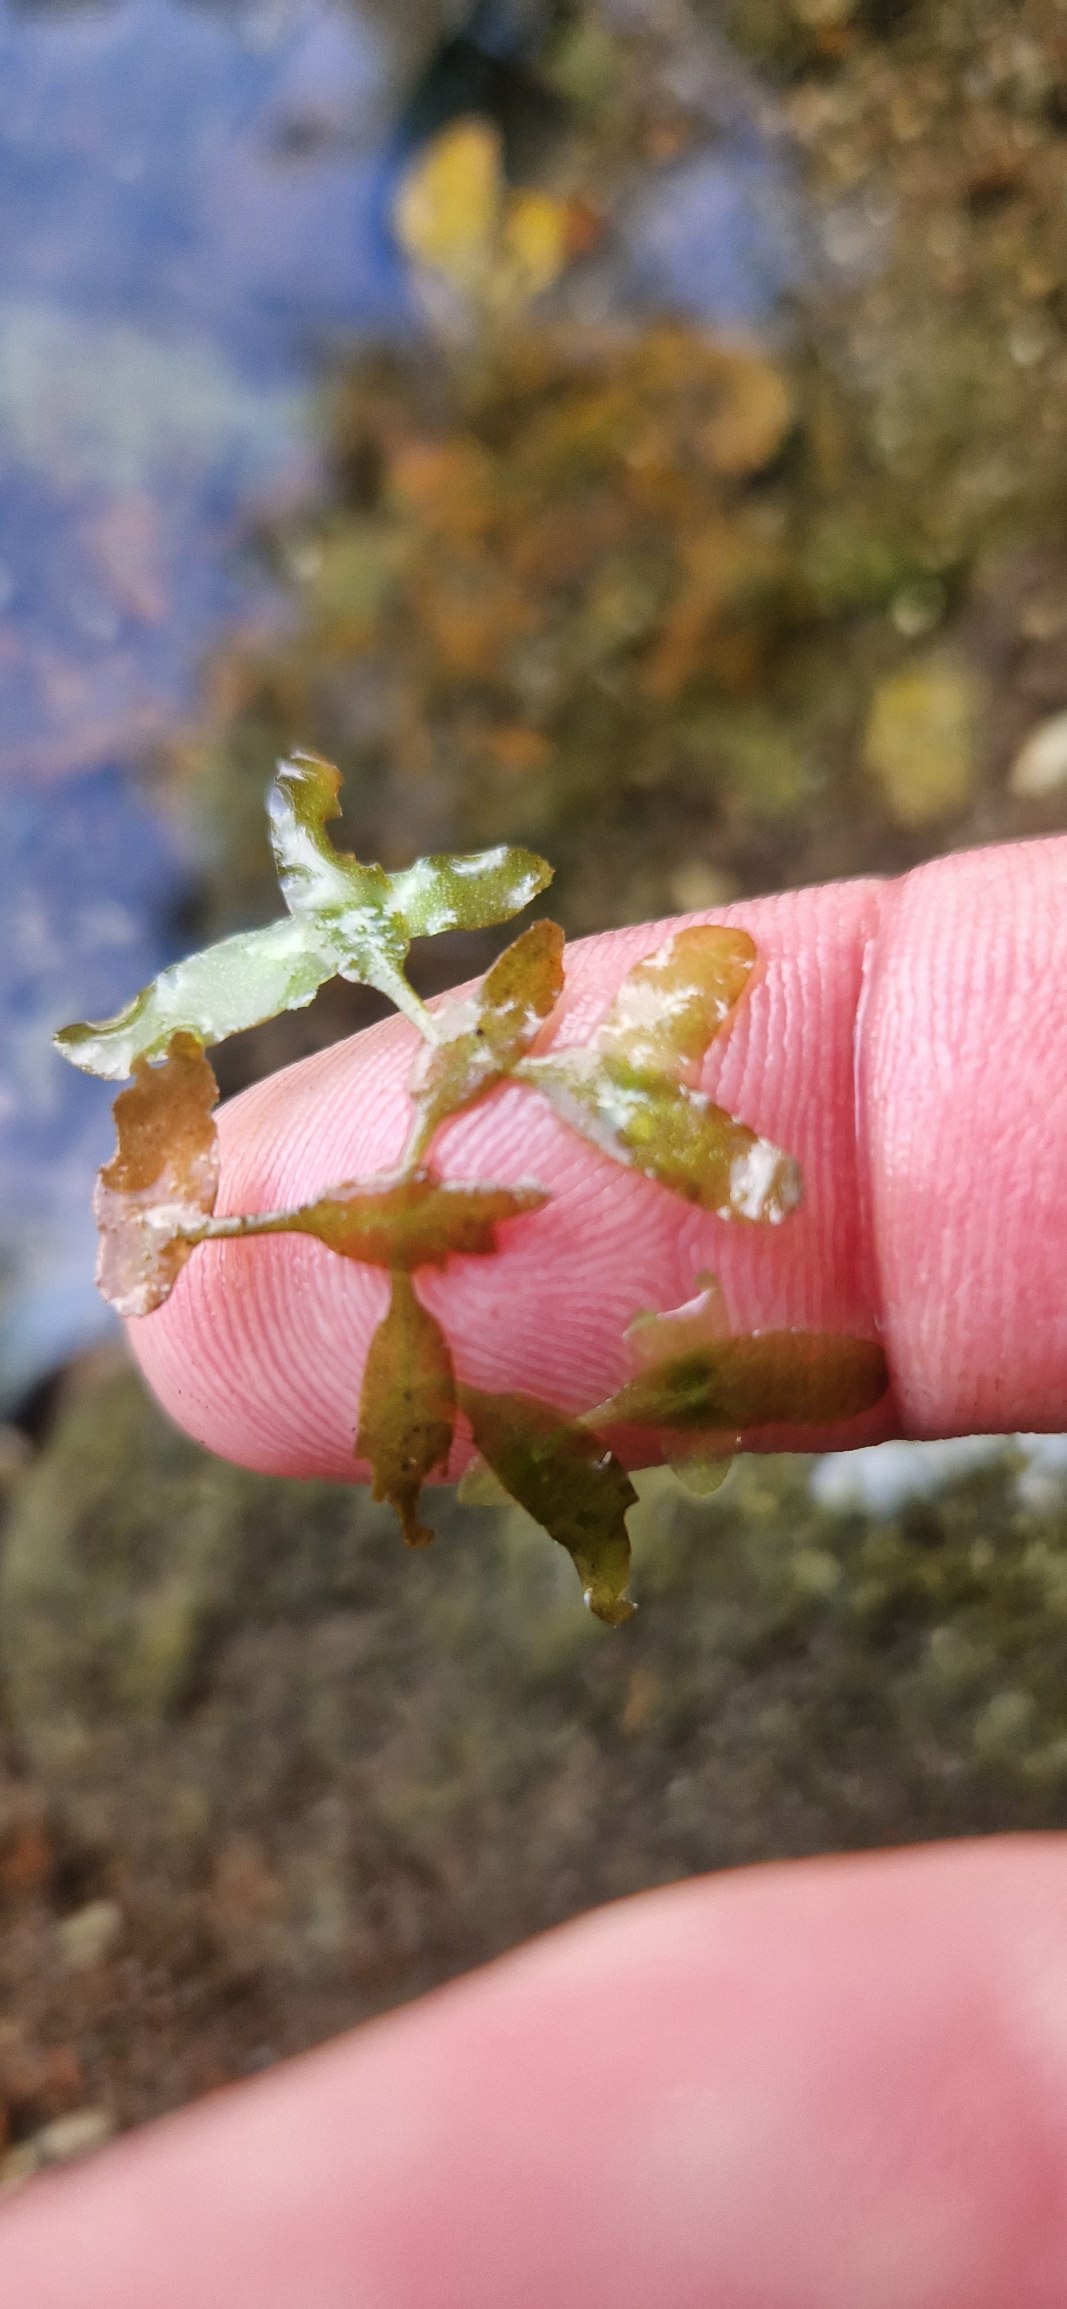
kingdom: Plantae
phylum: Tracheophyta
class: Liliopsida
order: Alismatales
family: Araceae
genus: Lemna
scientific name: Lemna trisulca
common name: Kors-andemad
